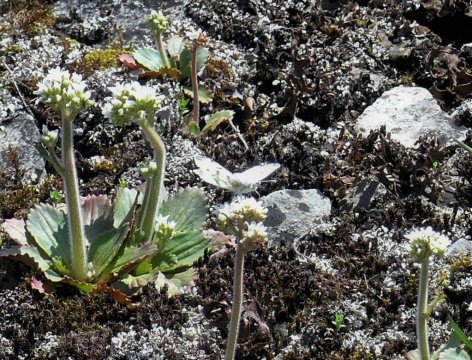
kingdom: Animalia
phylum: Arthropoda
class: Insecta
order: Lepidoptera
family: Pieridae
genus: Euchloe
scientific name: Euchloe olympia
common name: Olympia Marble
